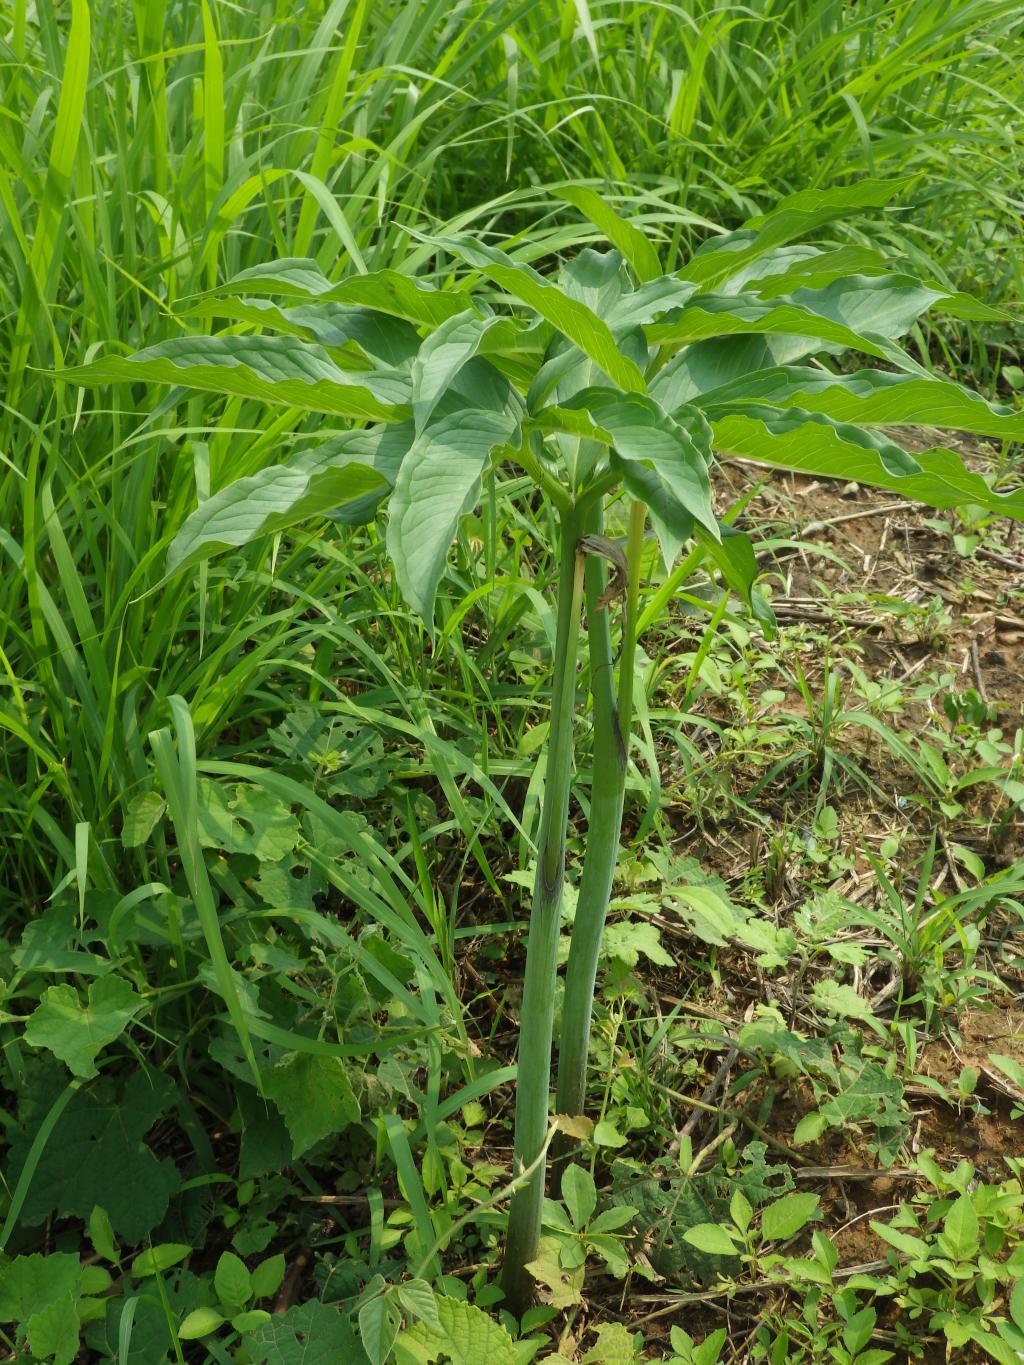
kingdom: Plantae
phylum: Tracheophyta
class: Liliopsida
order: Alismatales
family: Araceae
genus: Arisaema
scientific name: Arisaema heterophyllum
